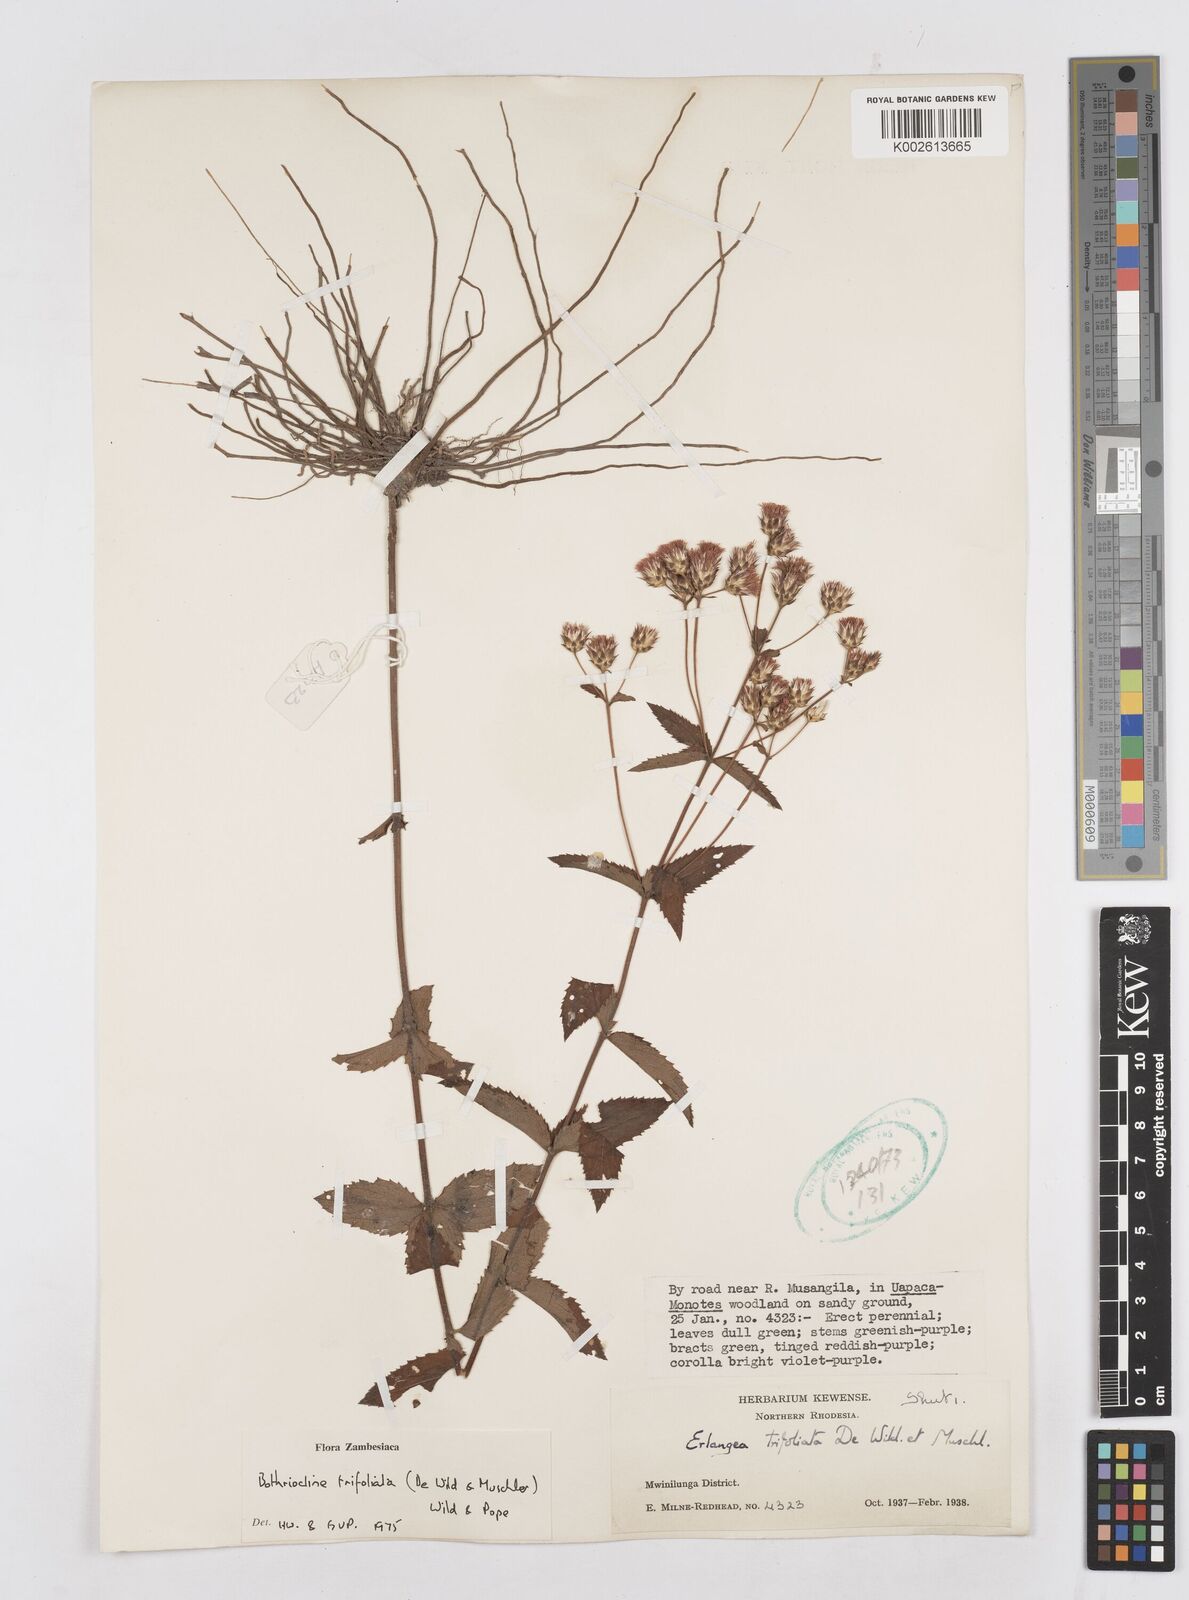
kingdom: Plantae
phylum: Tracheophyta
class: Magnoliopsida
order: Asterales
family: Asteraceae
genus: Bothriocline
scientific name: Bothriocline trifoliata
